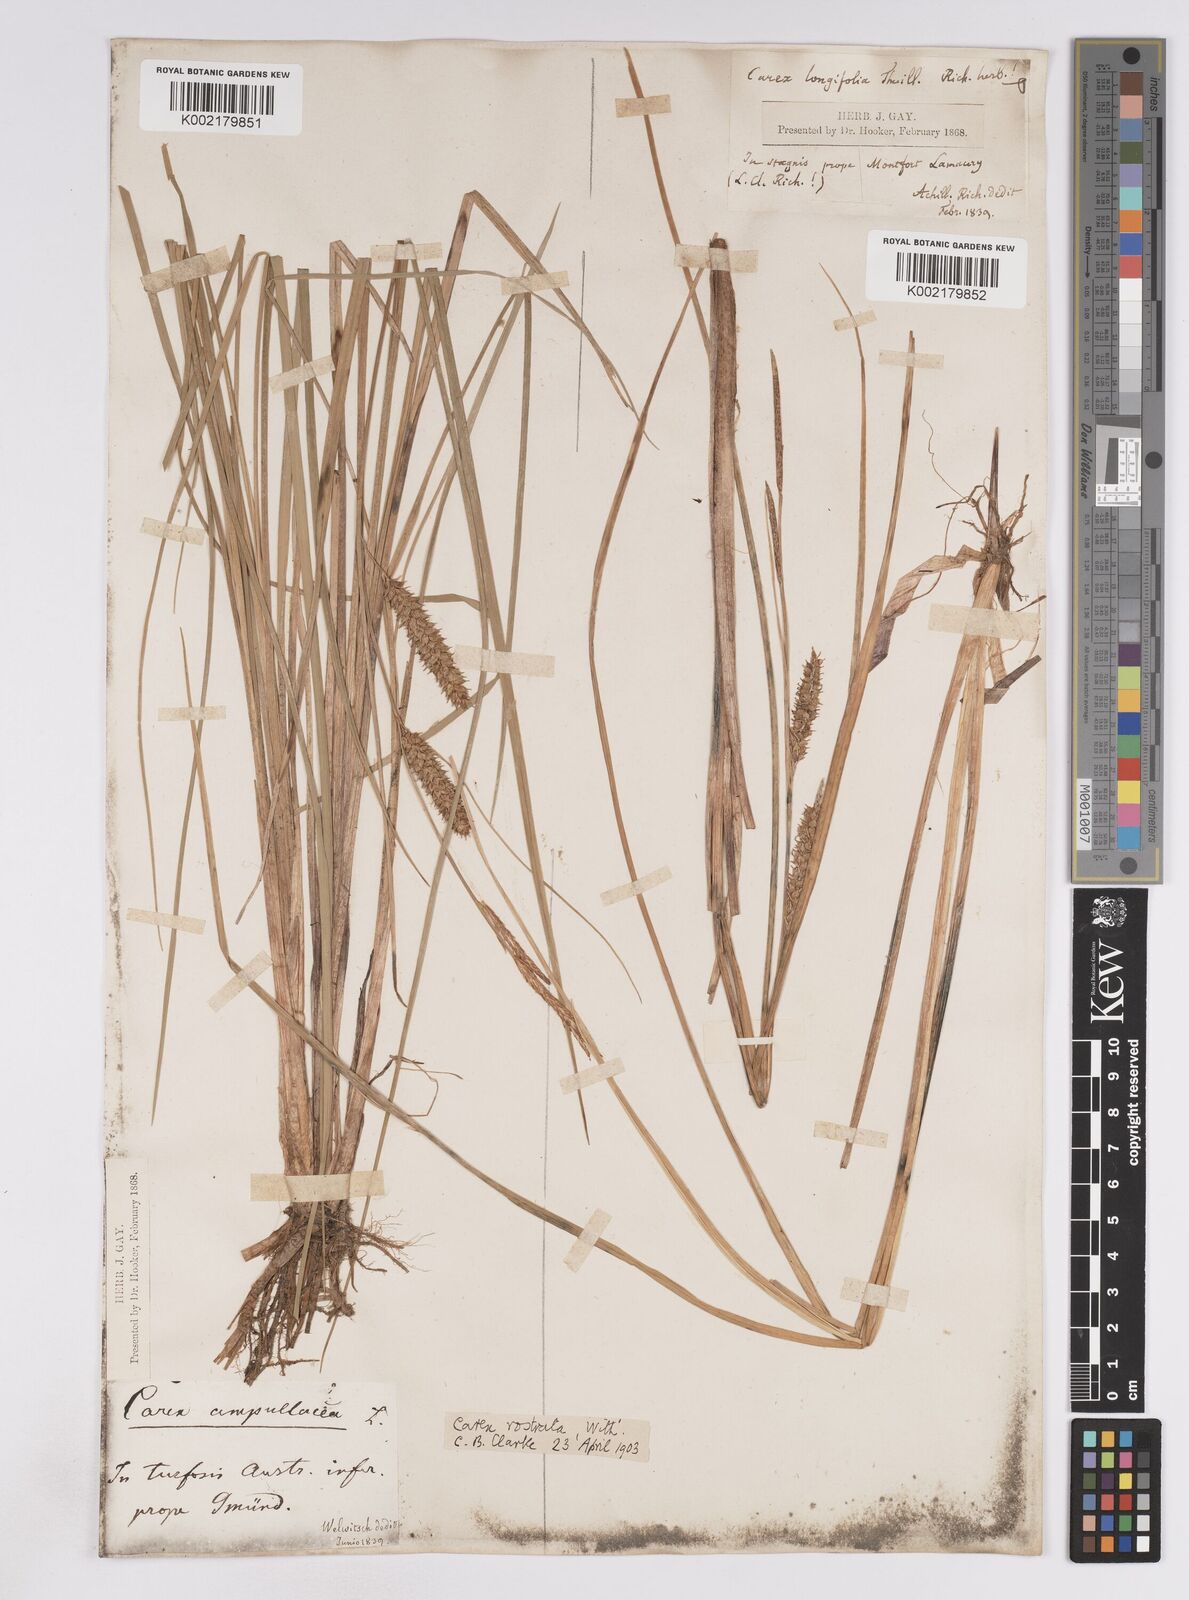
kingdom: Plantae
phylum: Tracheophyta
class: Liliopsida
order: Poales
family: Cyperaceae
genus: Carex
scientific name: Carex rostrata
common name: Bottle sedge
